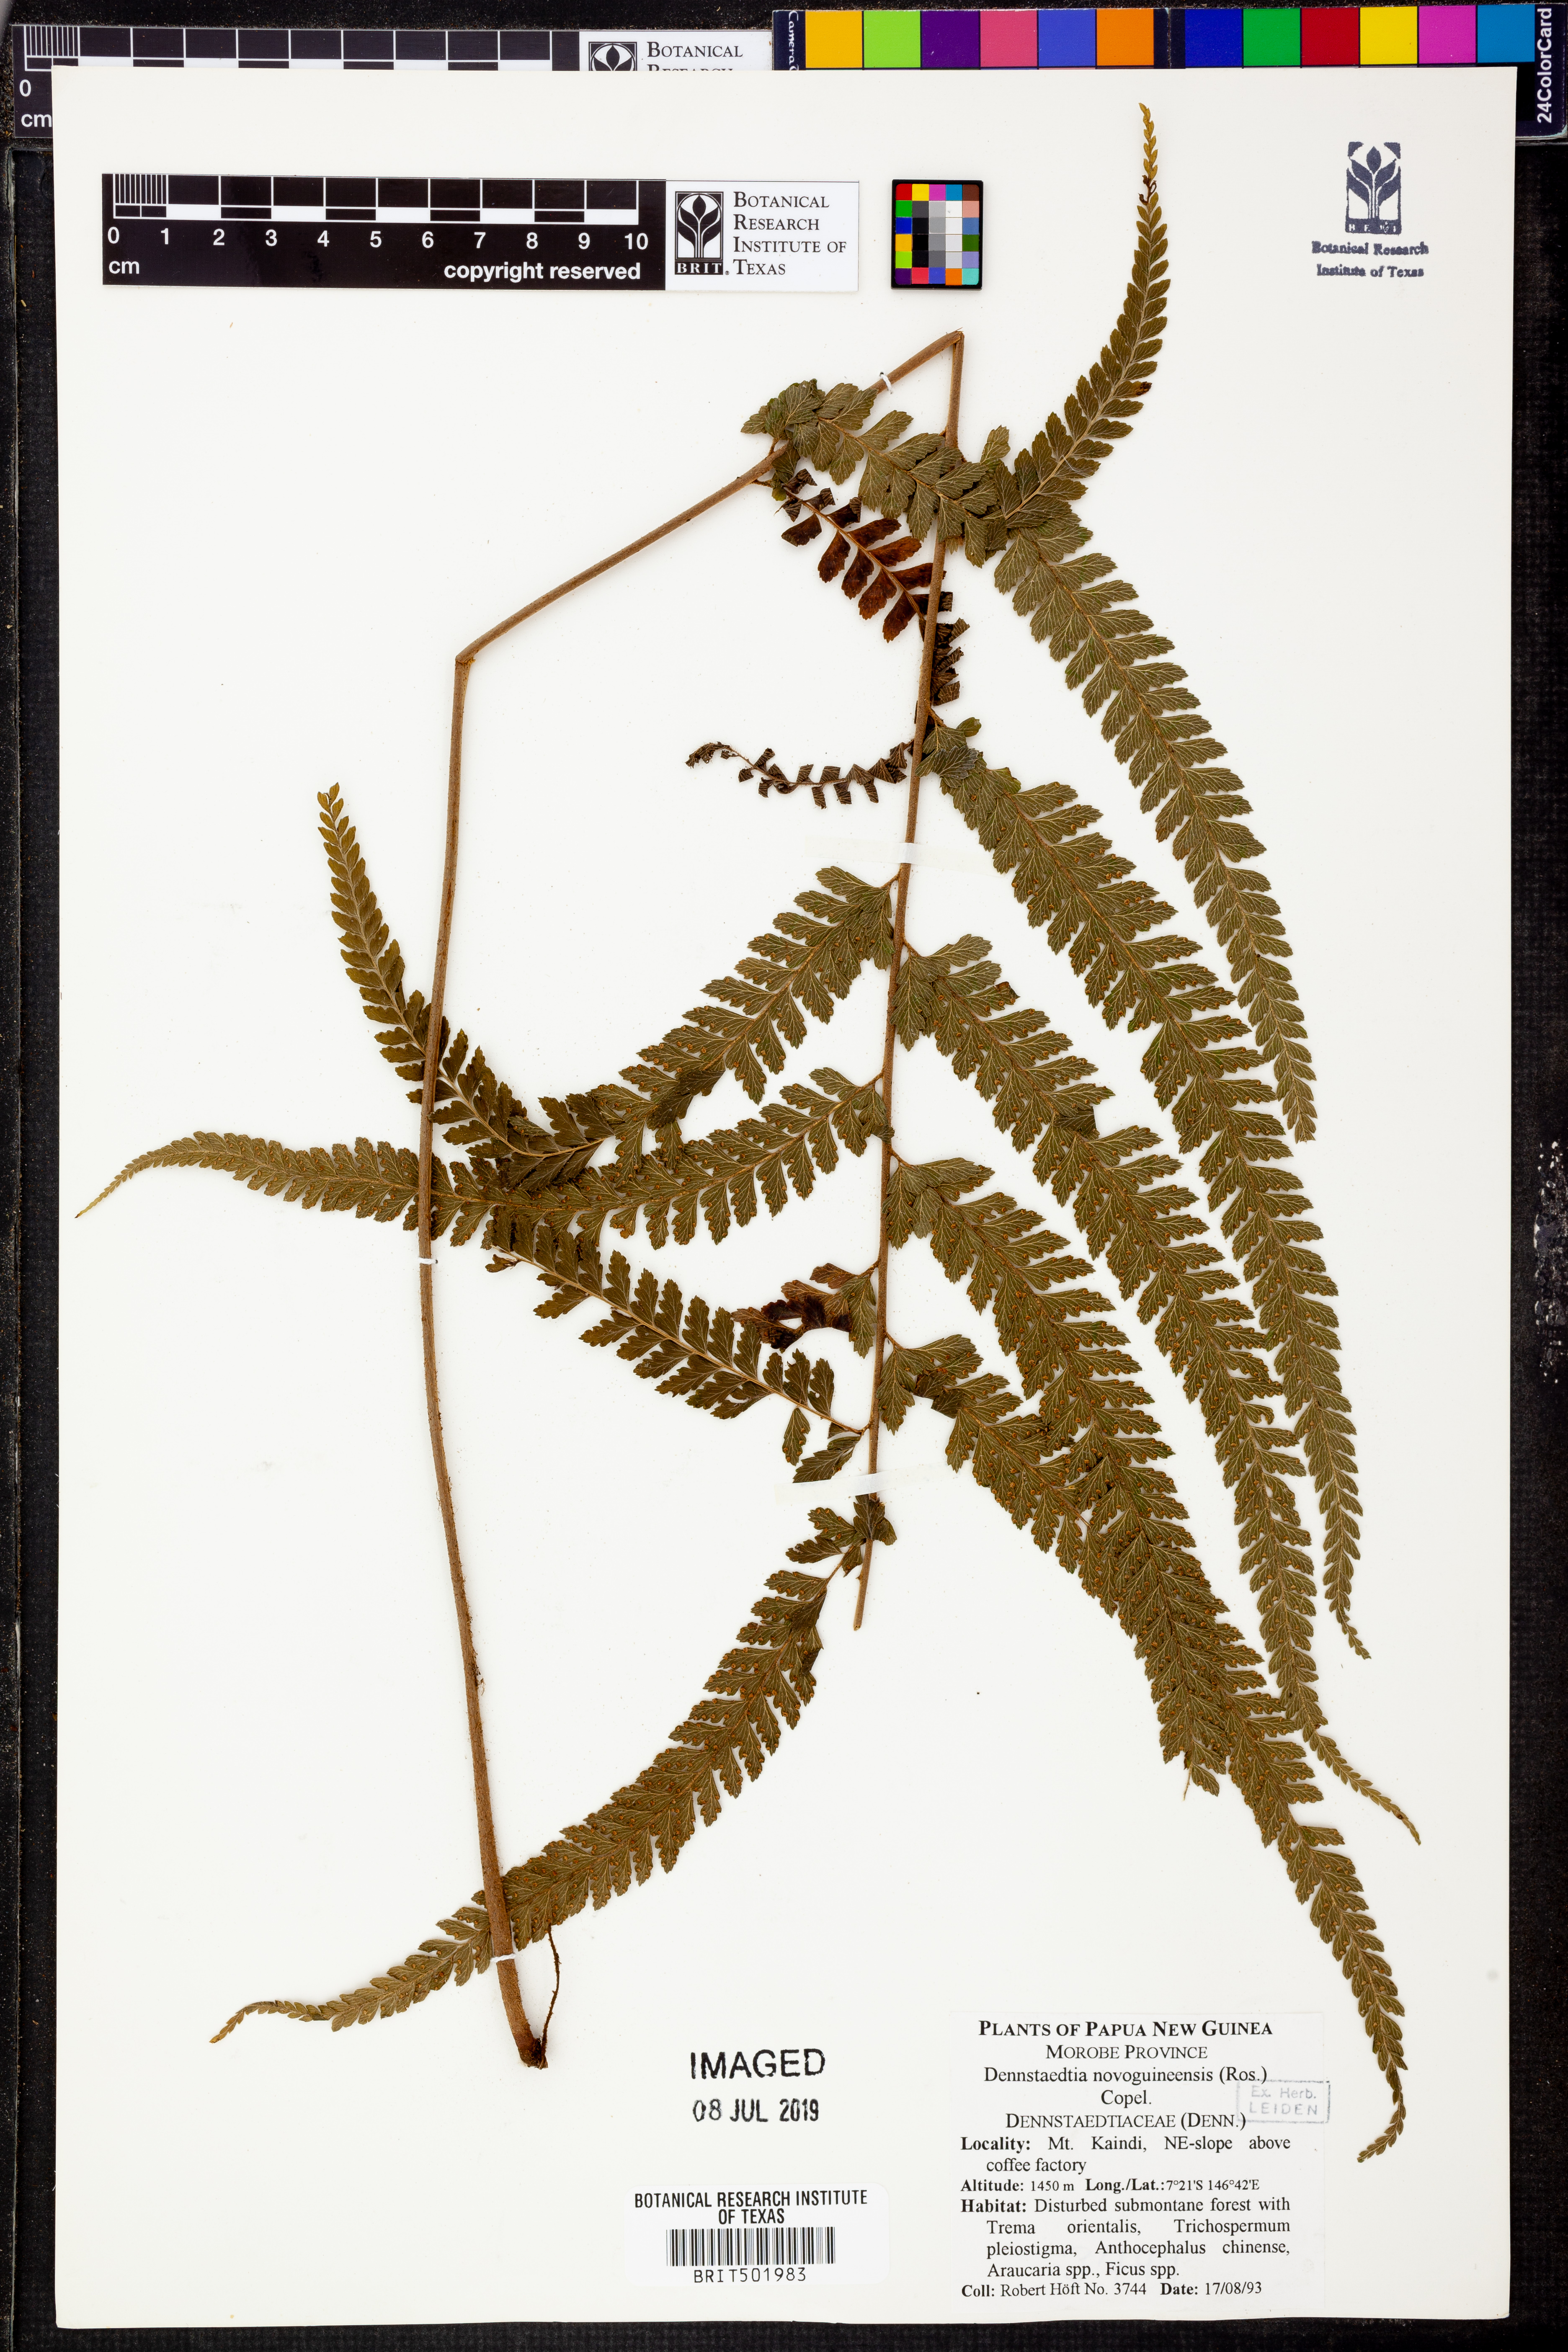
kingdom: Plantae
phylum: Tracheophyta
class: Polypodiopsida
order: Polypodiales
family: Dennstaedtiaceae
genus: Dennstaedtia
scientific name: Dennstaedtia novoguineensis
